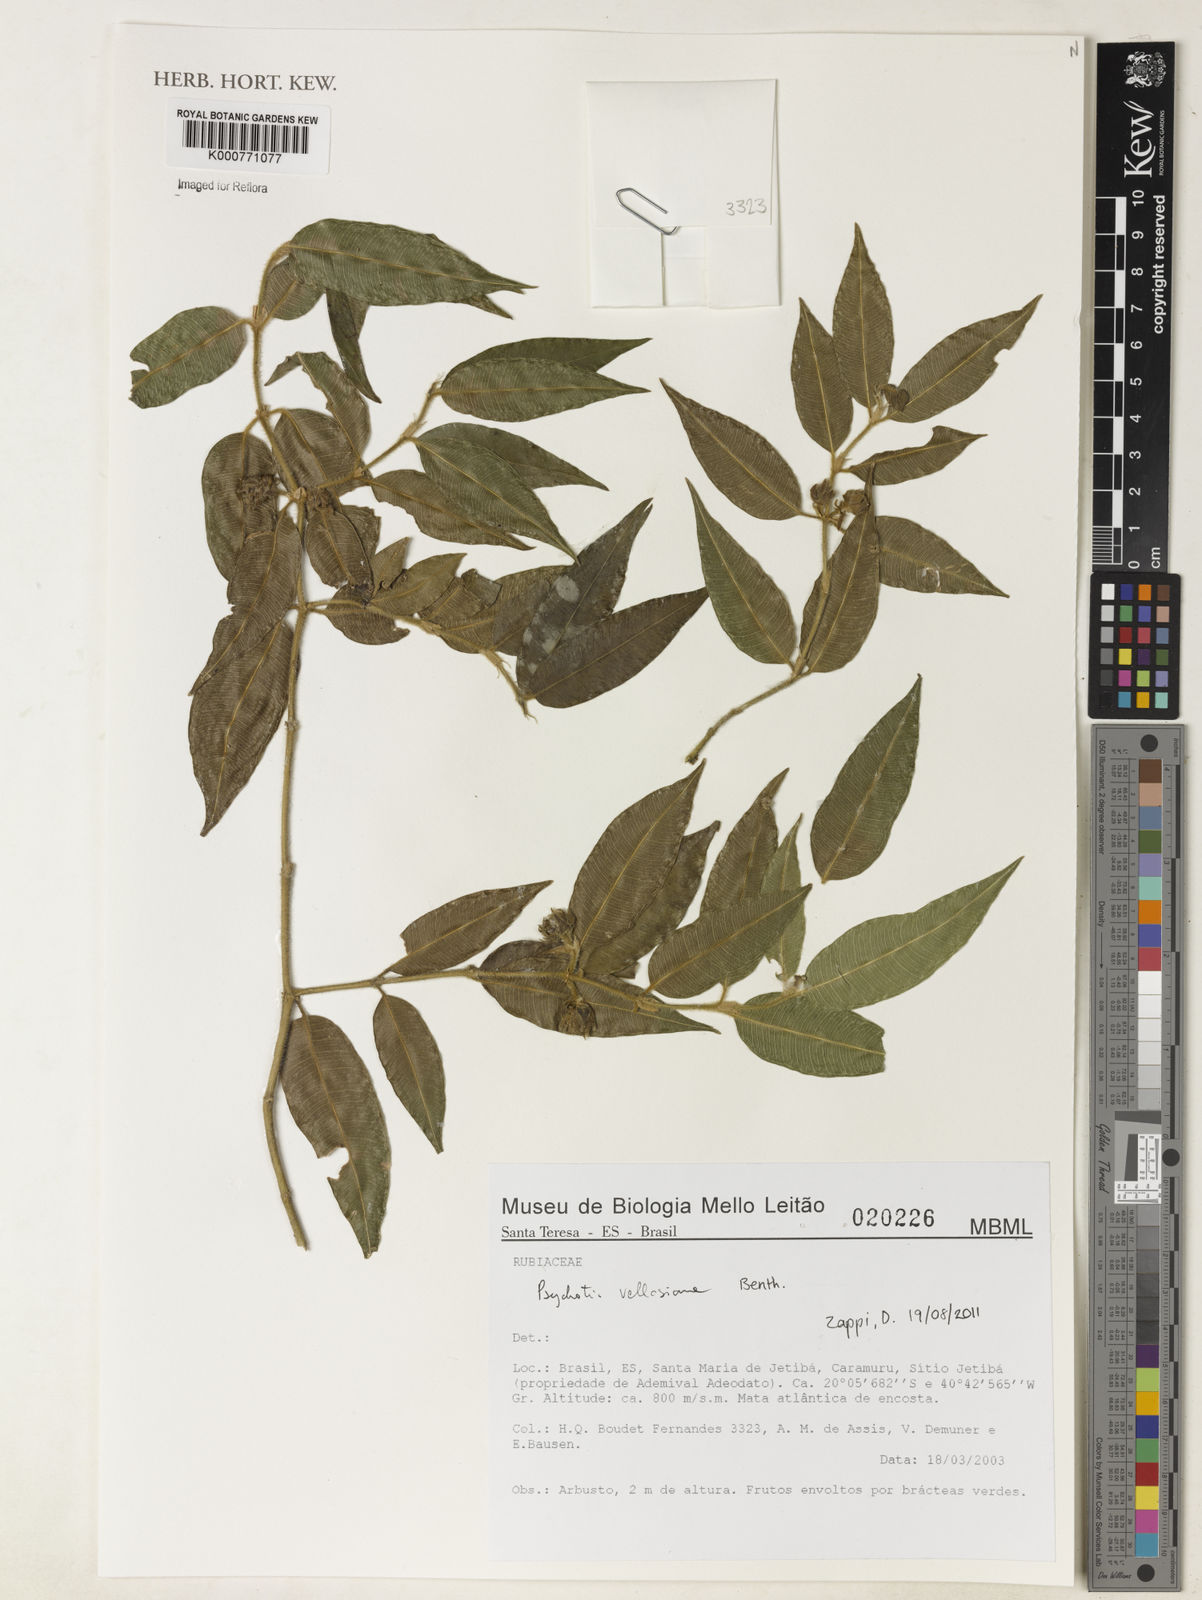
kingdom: Plantae
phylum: Tracheophyta
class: Magnoliopsida
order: Gentianales
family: Rubiaceae
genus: Palicourea
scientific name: Palicourea sessilis
